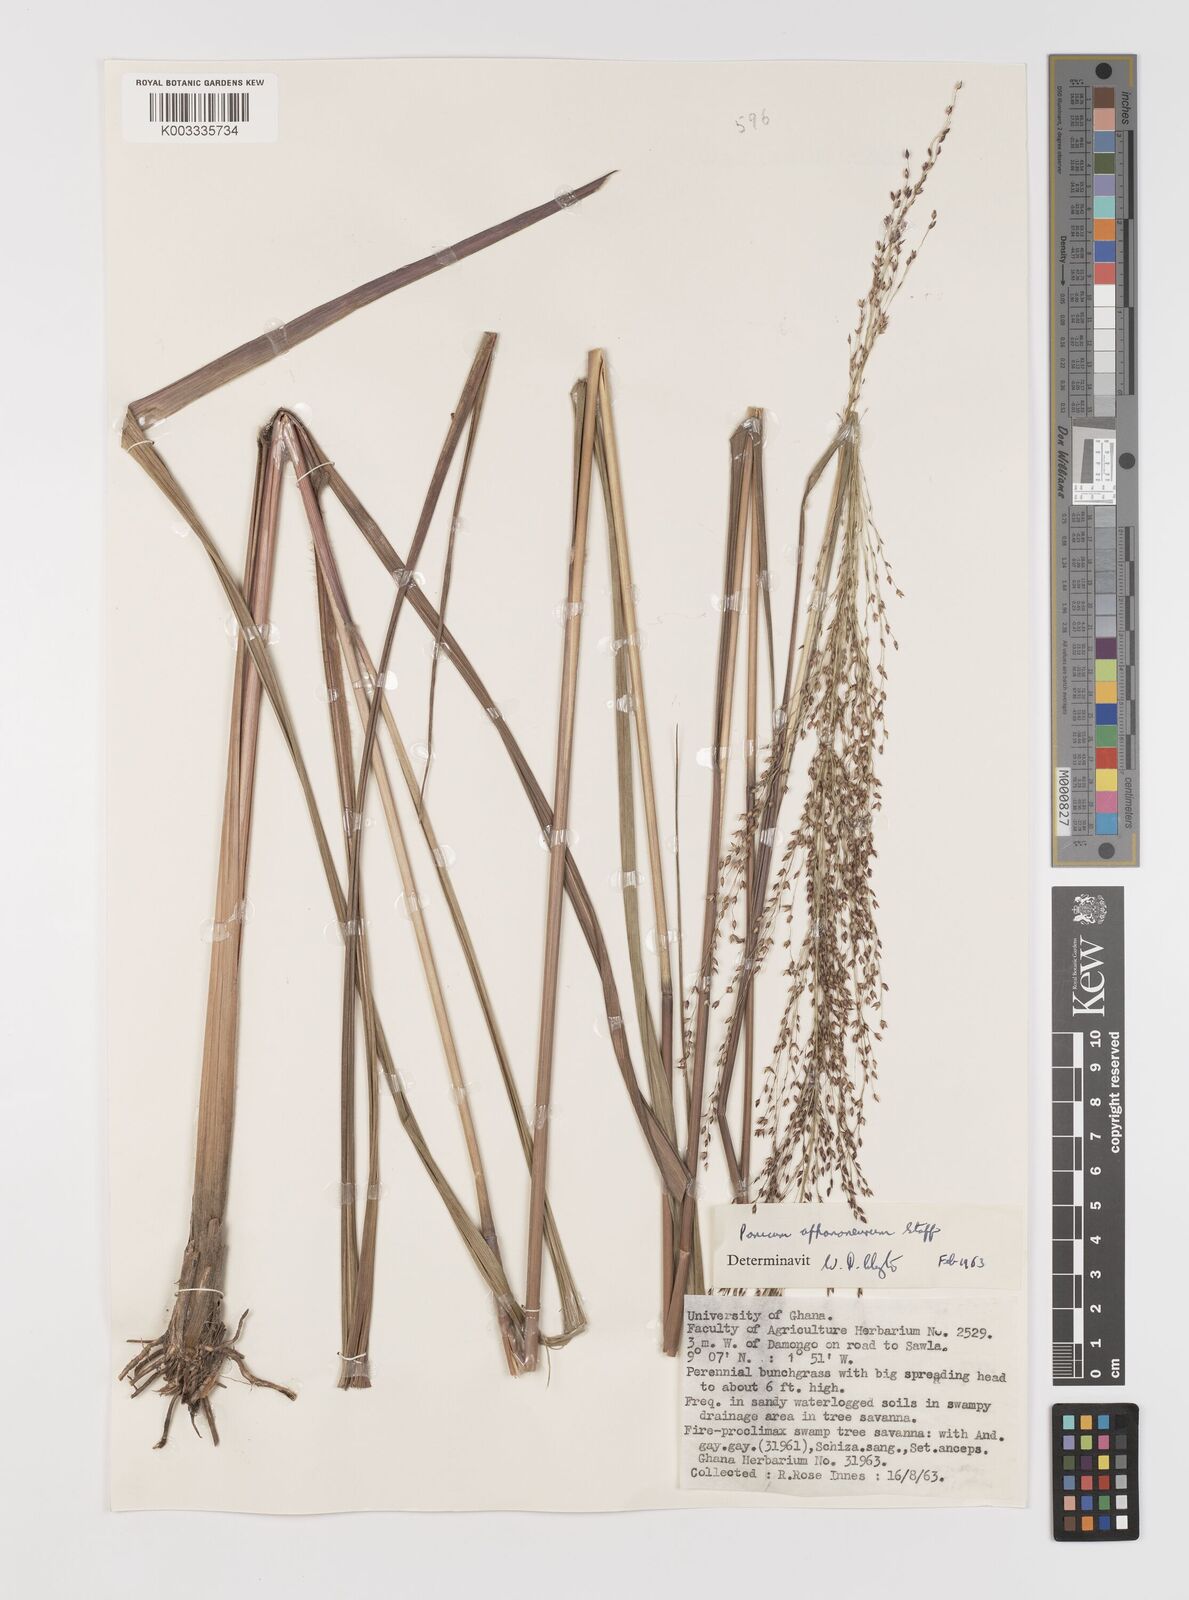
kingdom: Plantae
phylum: Tracheophyta
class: Liliopsida
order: Poales
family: Poaceae
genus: Panicum
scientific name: Panicum fluviicola
